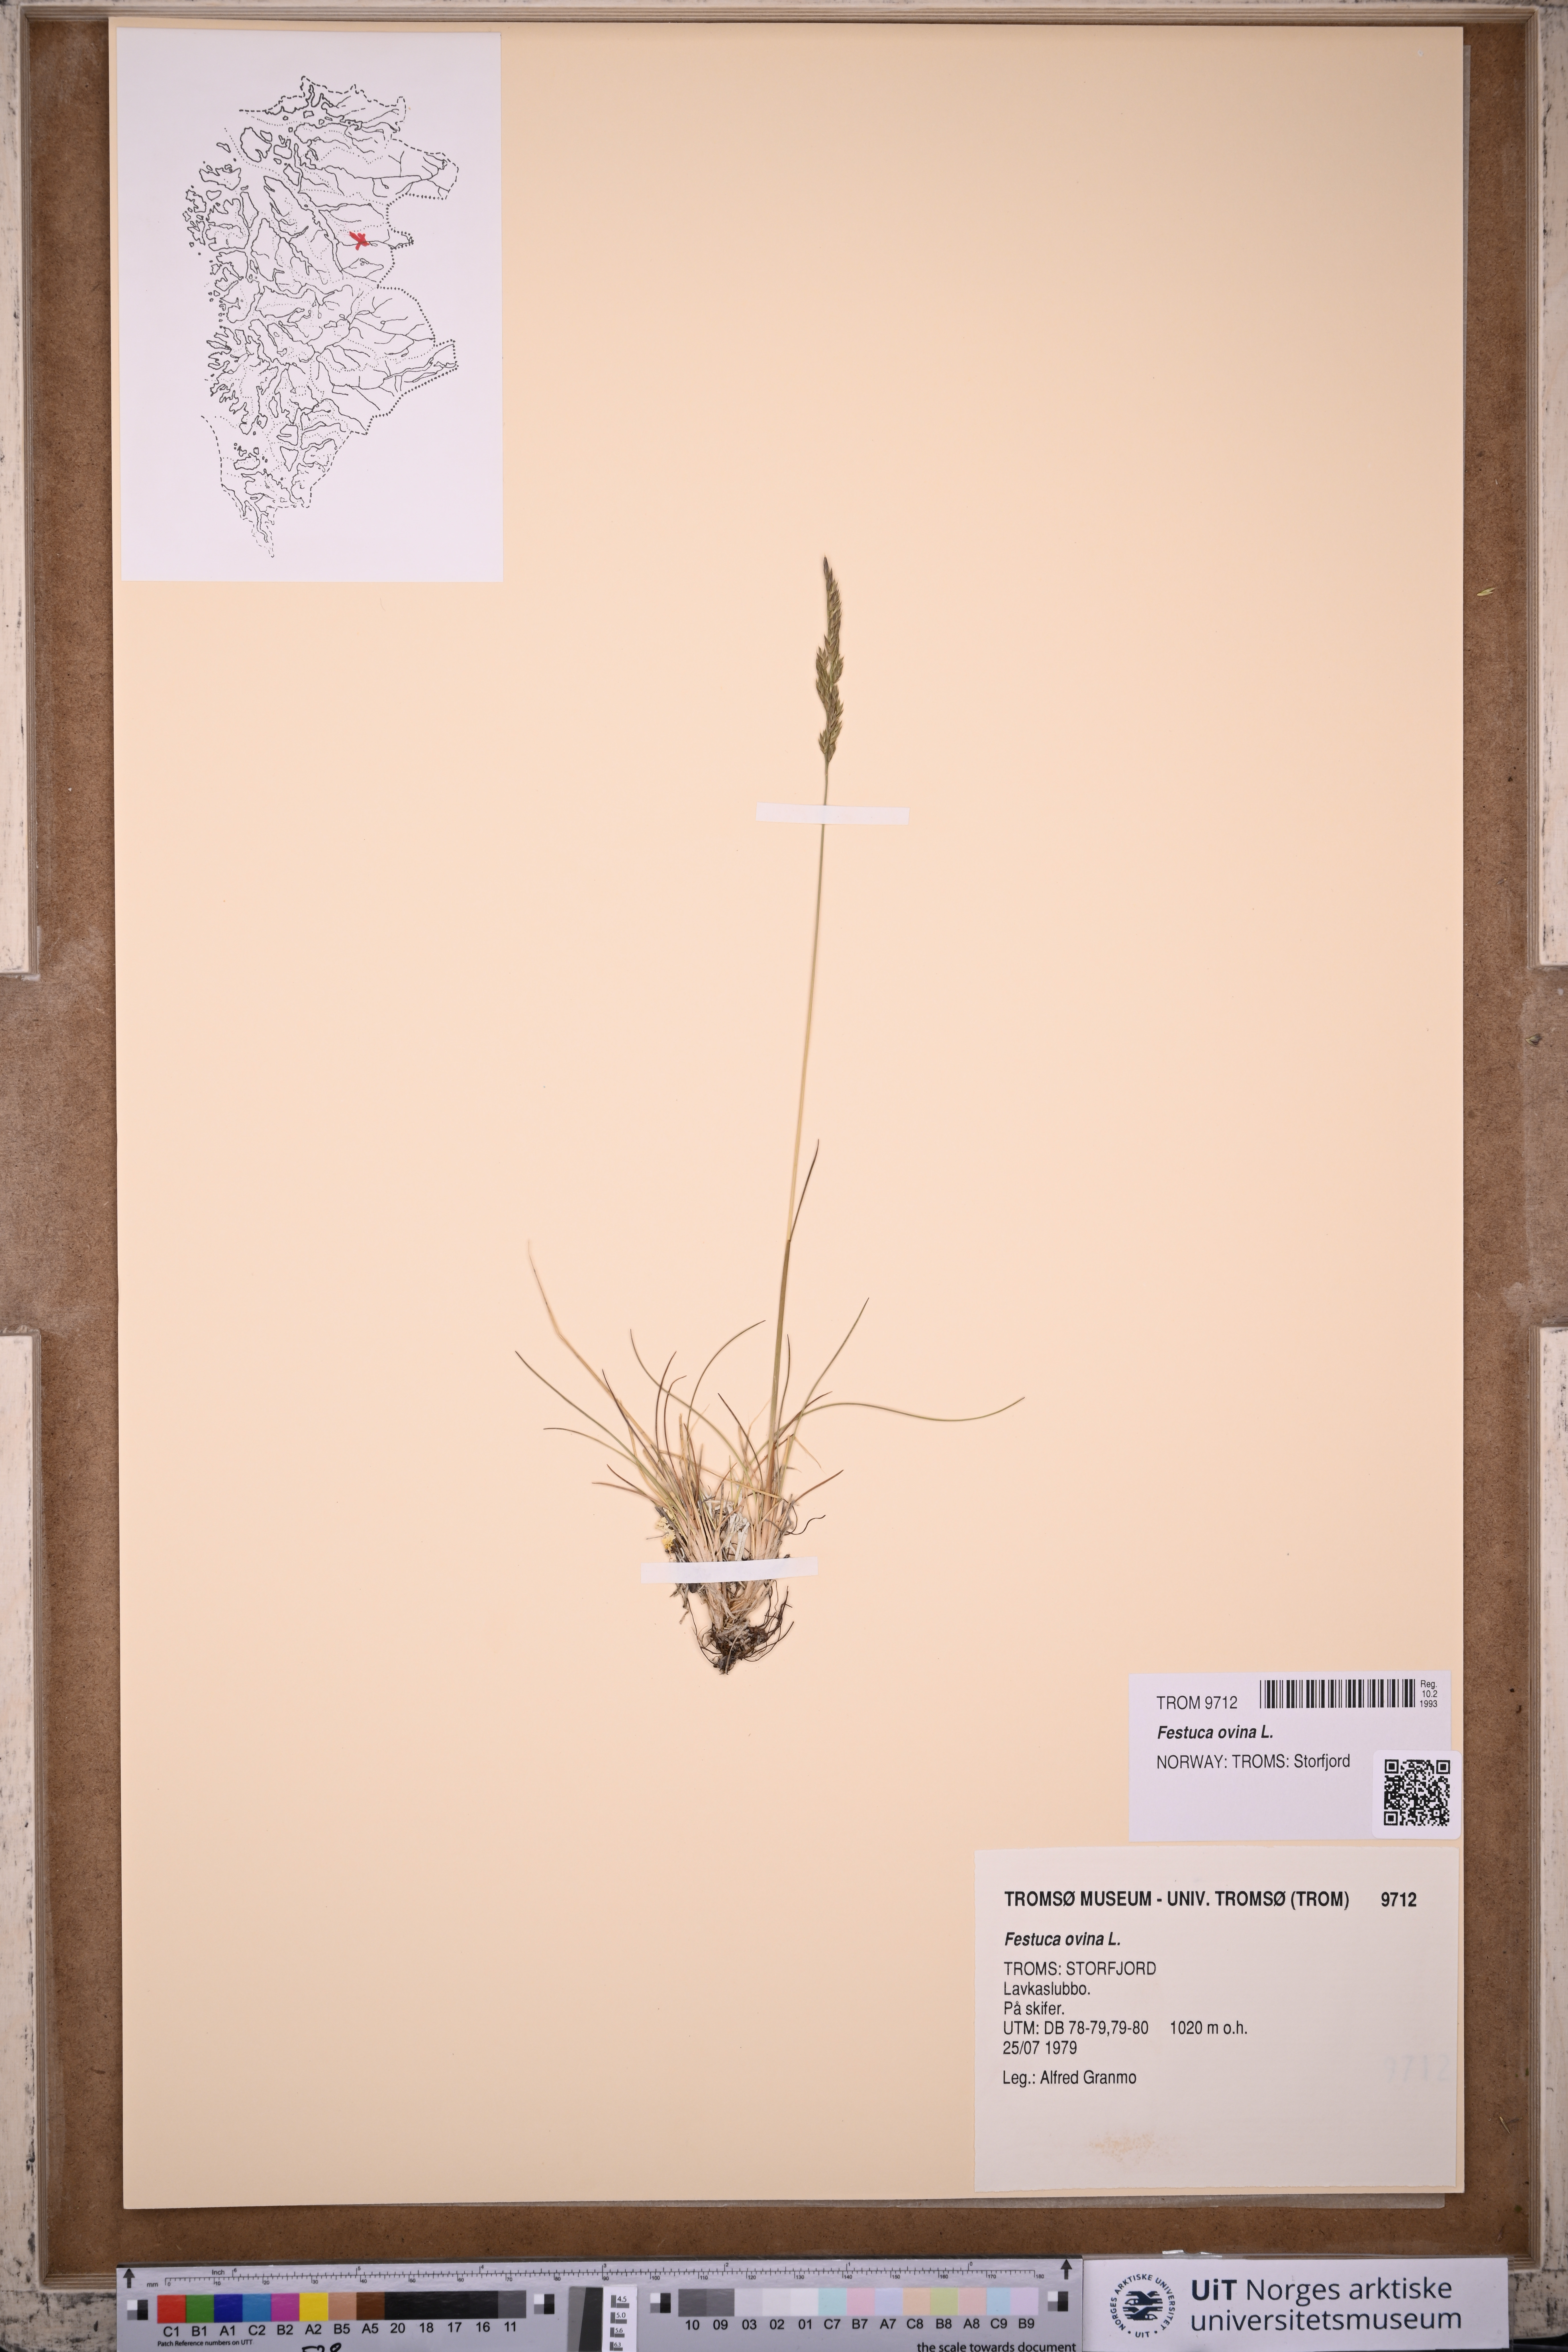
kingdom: Plantae
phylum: Tracheophyta
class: Liliopsida
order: Poales
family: Poaceae
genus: Festuca
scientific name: Festuca ovina
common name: Sheep fescue
